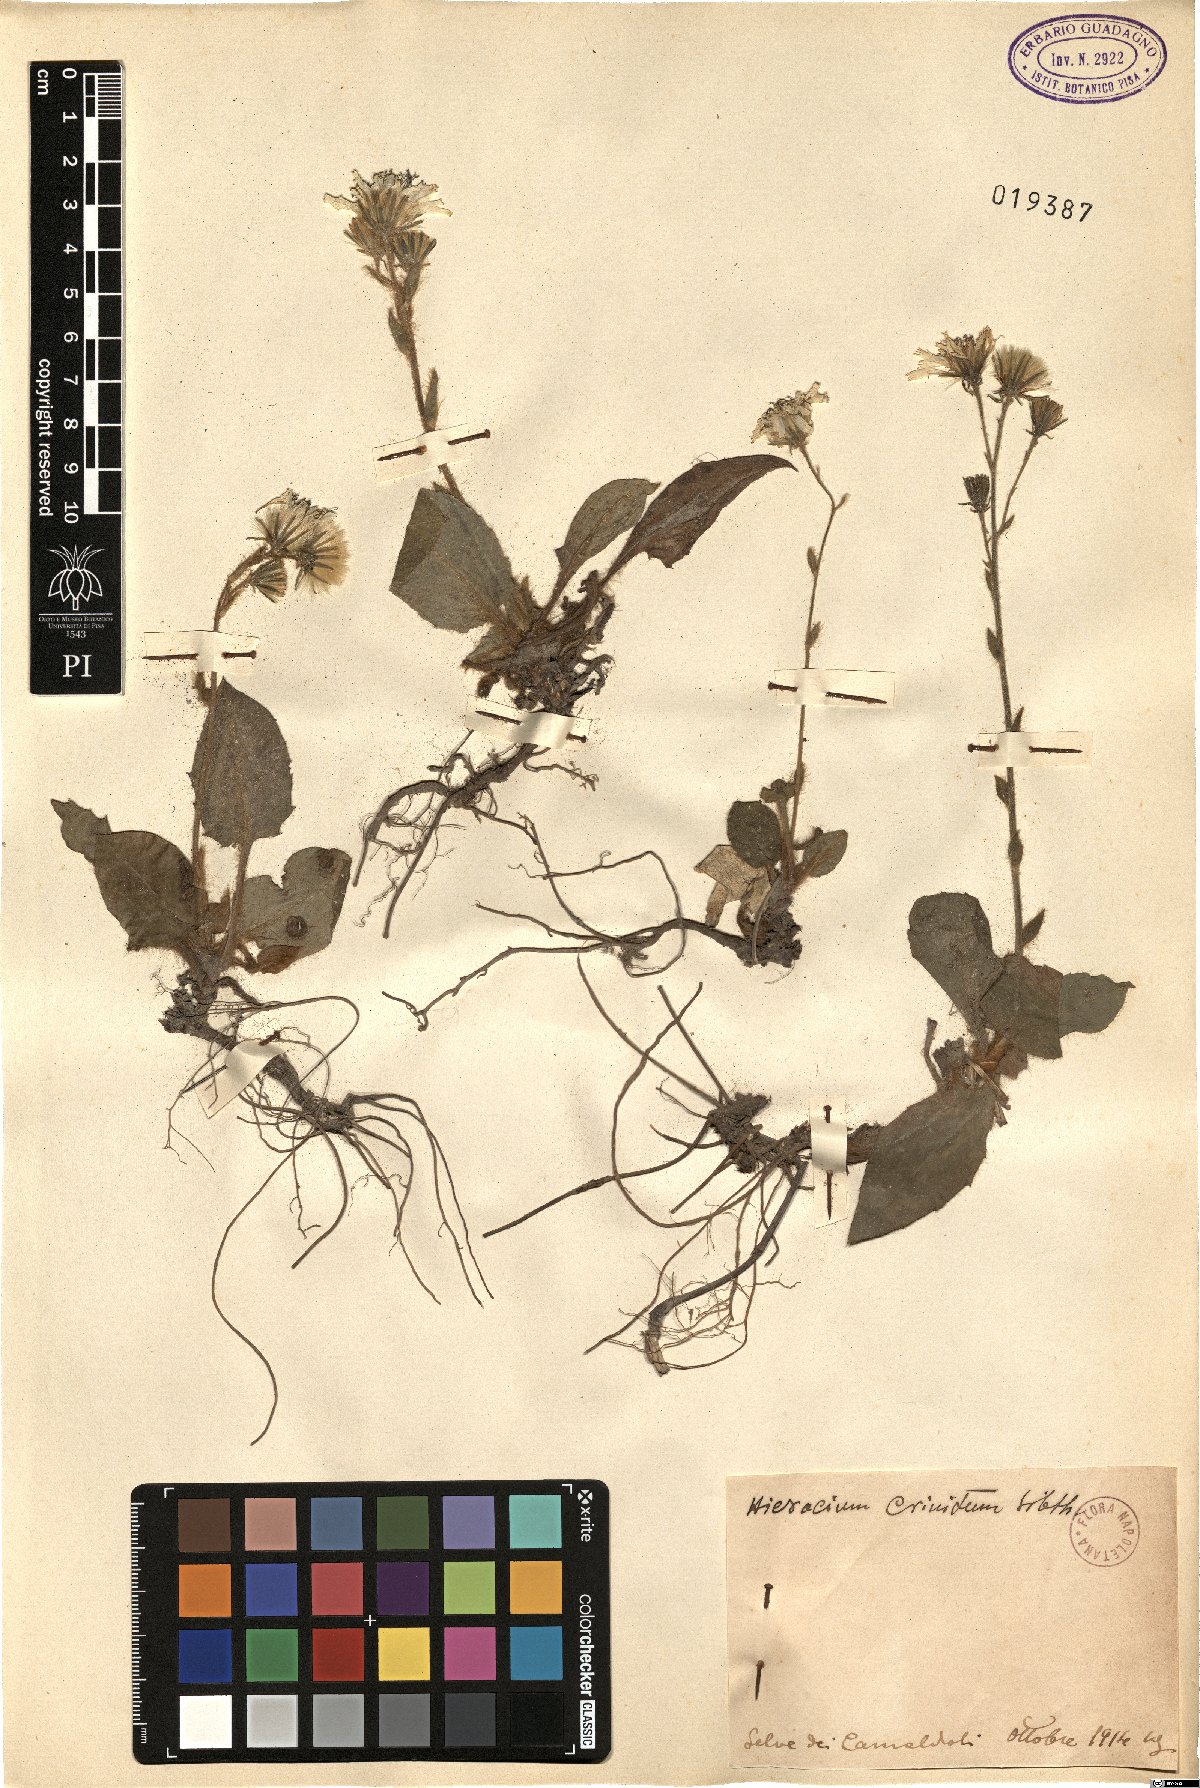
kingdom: Plantae
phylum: Tracheophyta
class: Magnoliopsida
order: Asterales
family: Asteraceae
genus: Hieracium
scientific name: Hieracium racemosum
